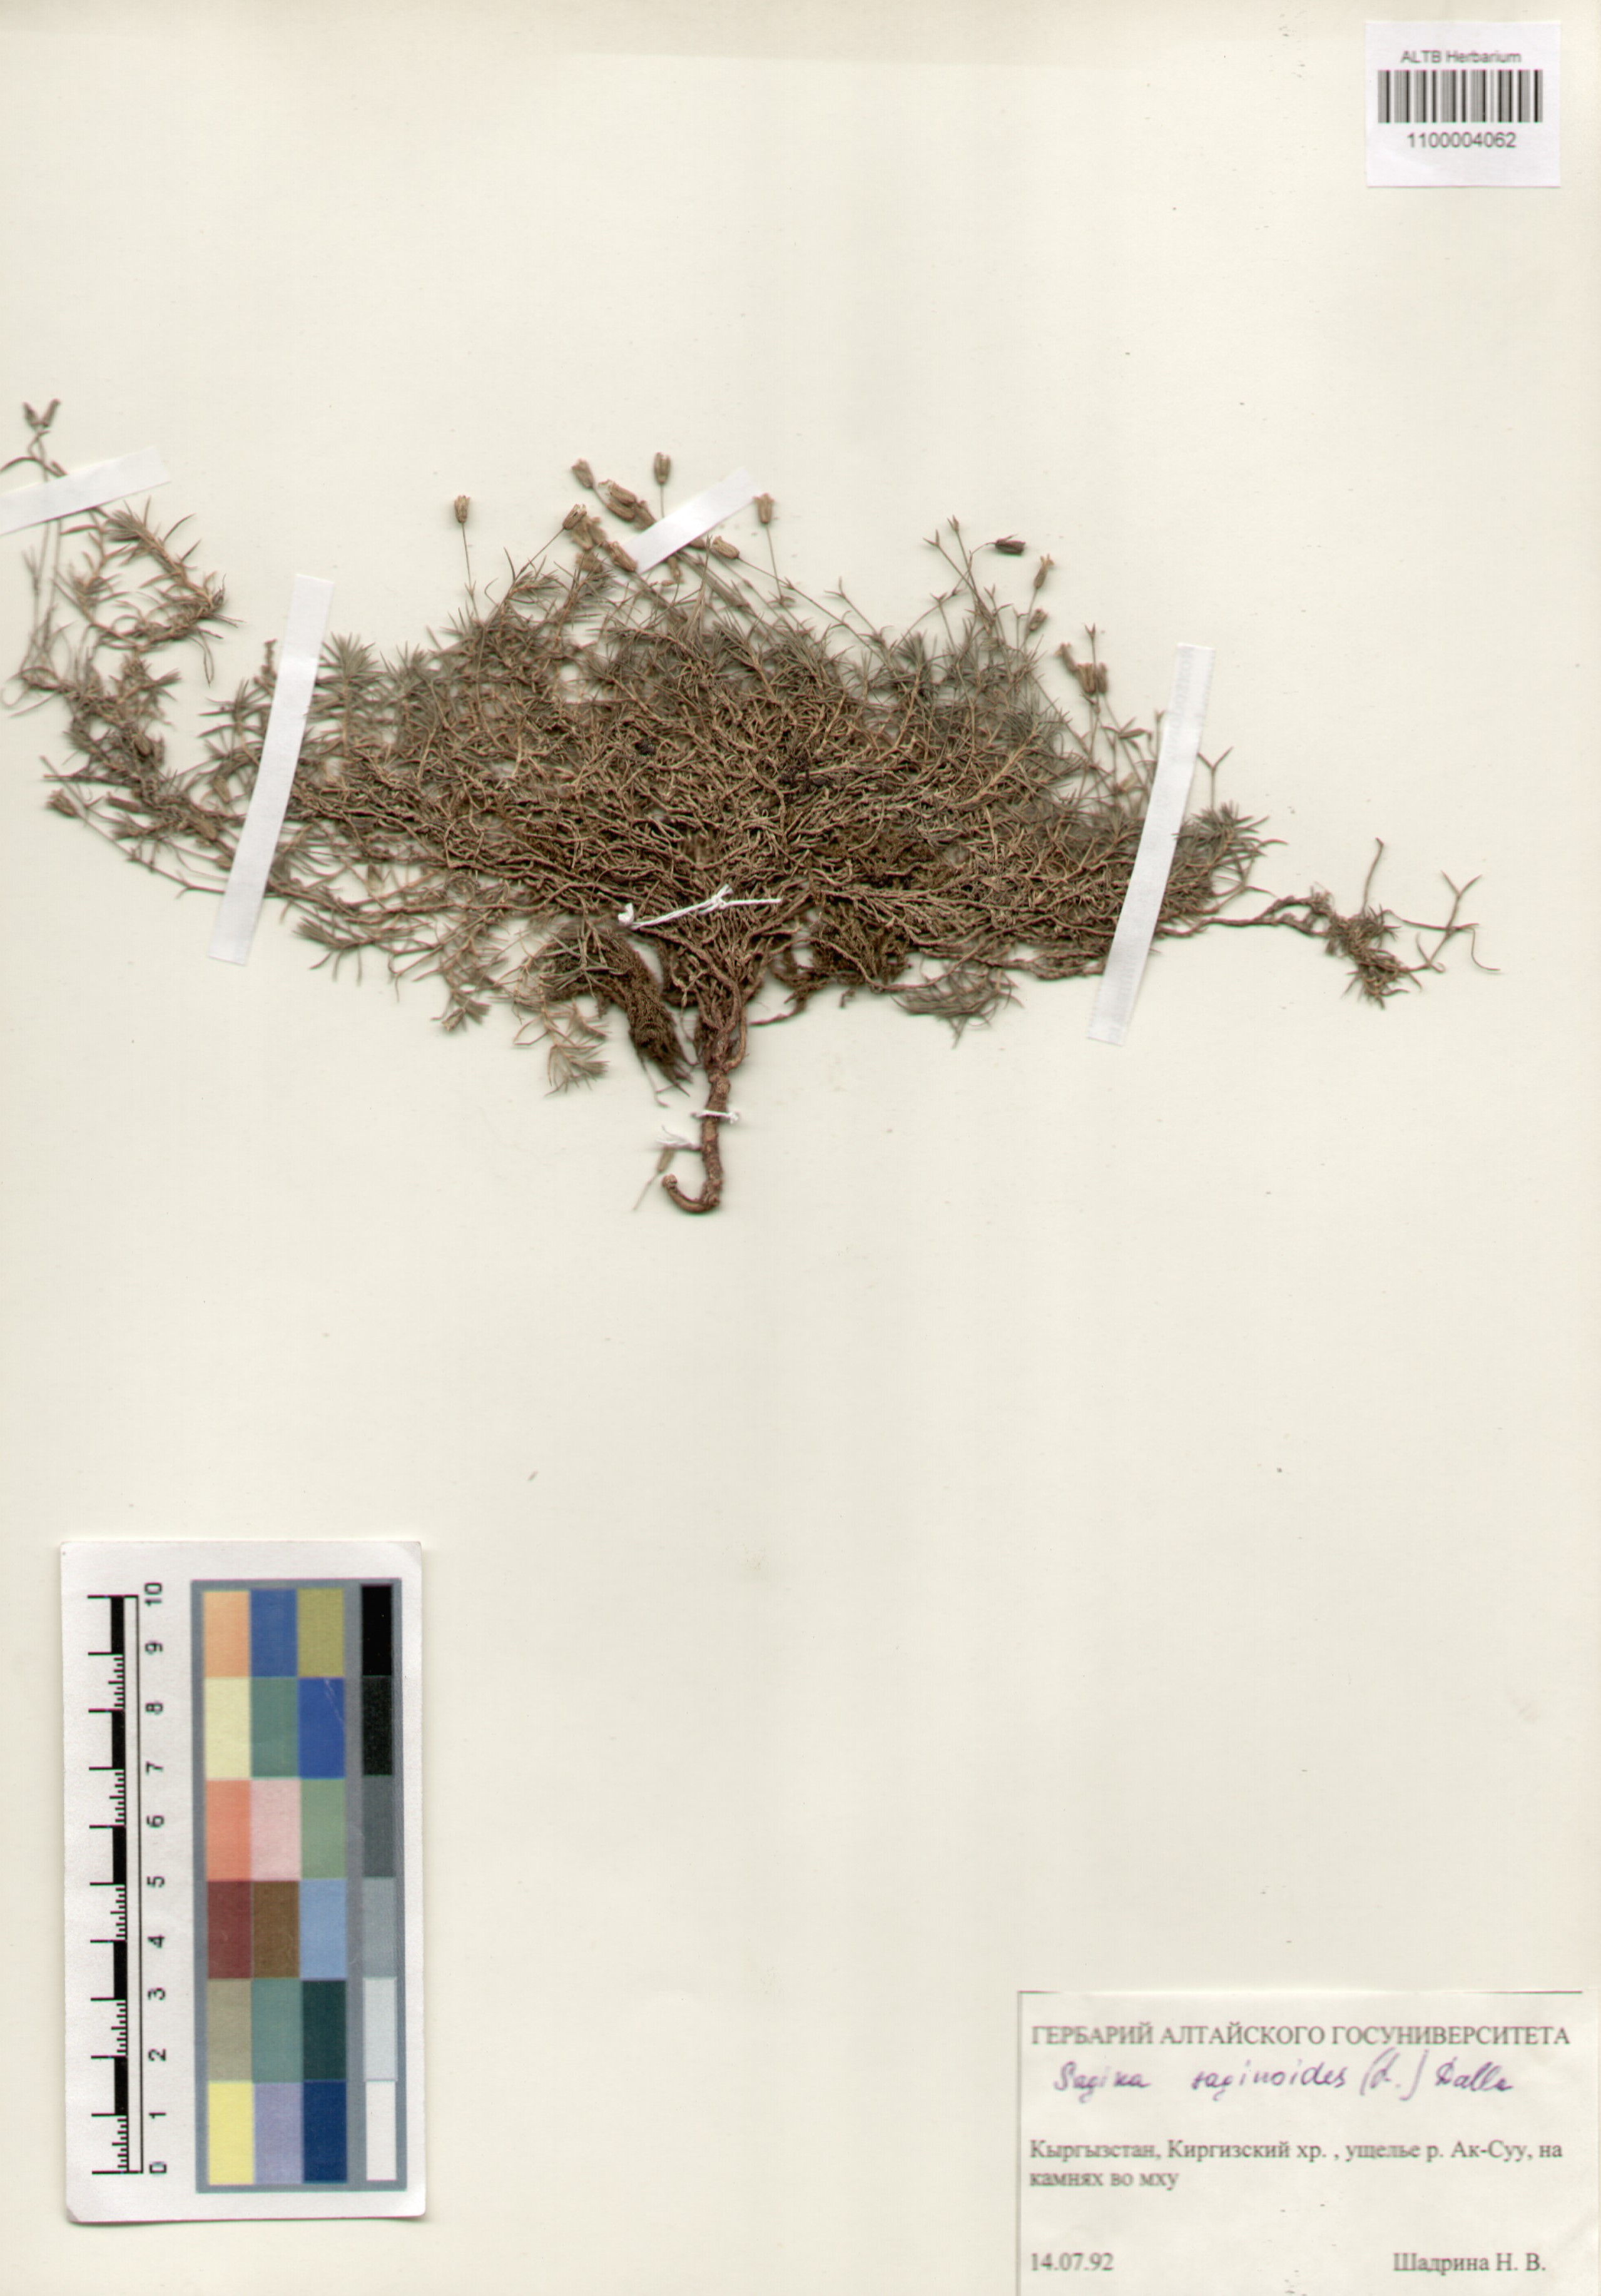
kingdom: Plantae
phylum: Tracheophyta
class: Magnoliopsida
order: Caryophyllales
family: Caryophyllaceae
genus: Sagina
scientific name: Sagina saginoides
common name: Alpine pearlwort
